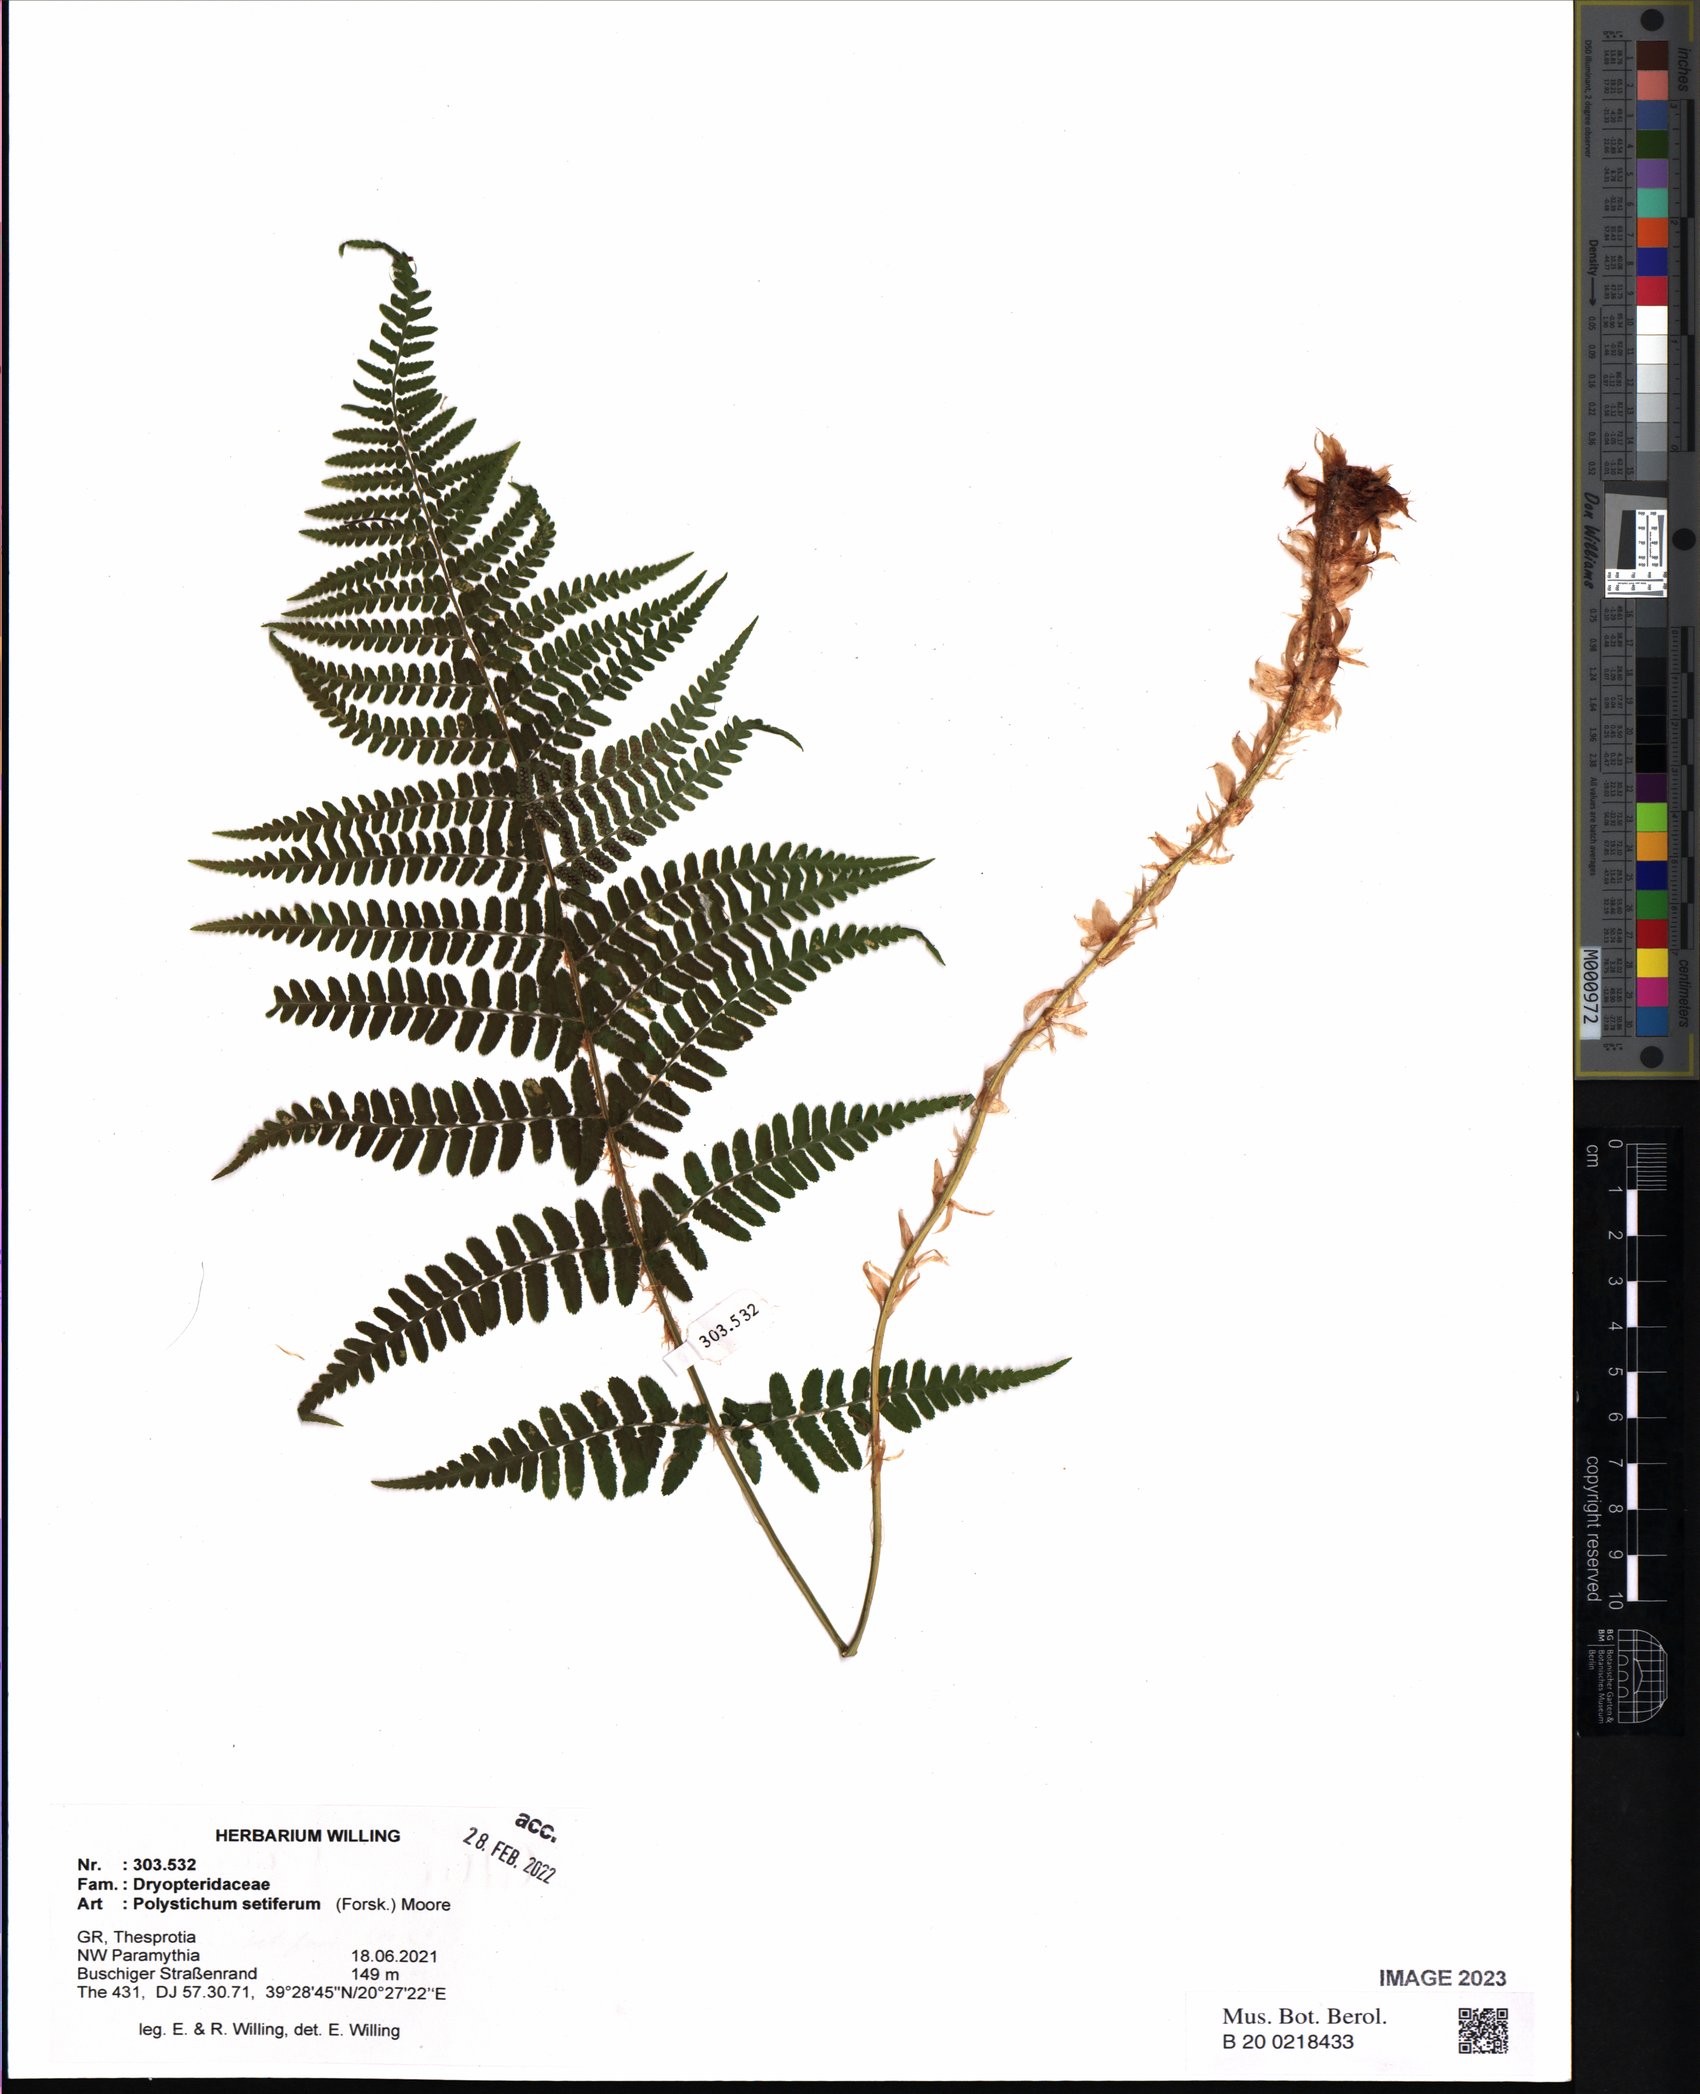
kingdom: Plantae
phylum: Tracheophyta
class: Polypodiopsida
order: Polypodiales
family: Dryopteridaceae
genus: Polystichum
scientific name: Polystichum setiferum
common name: Soft shield-fern
